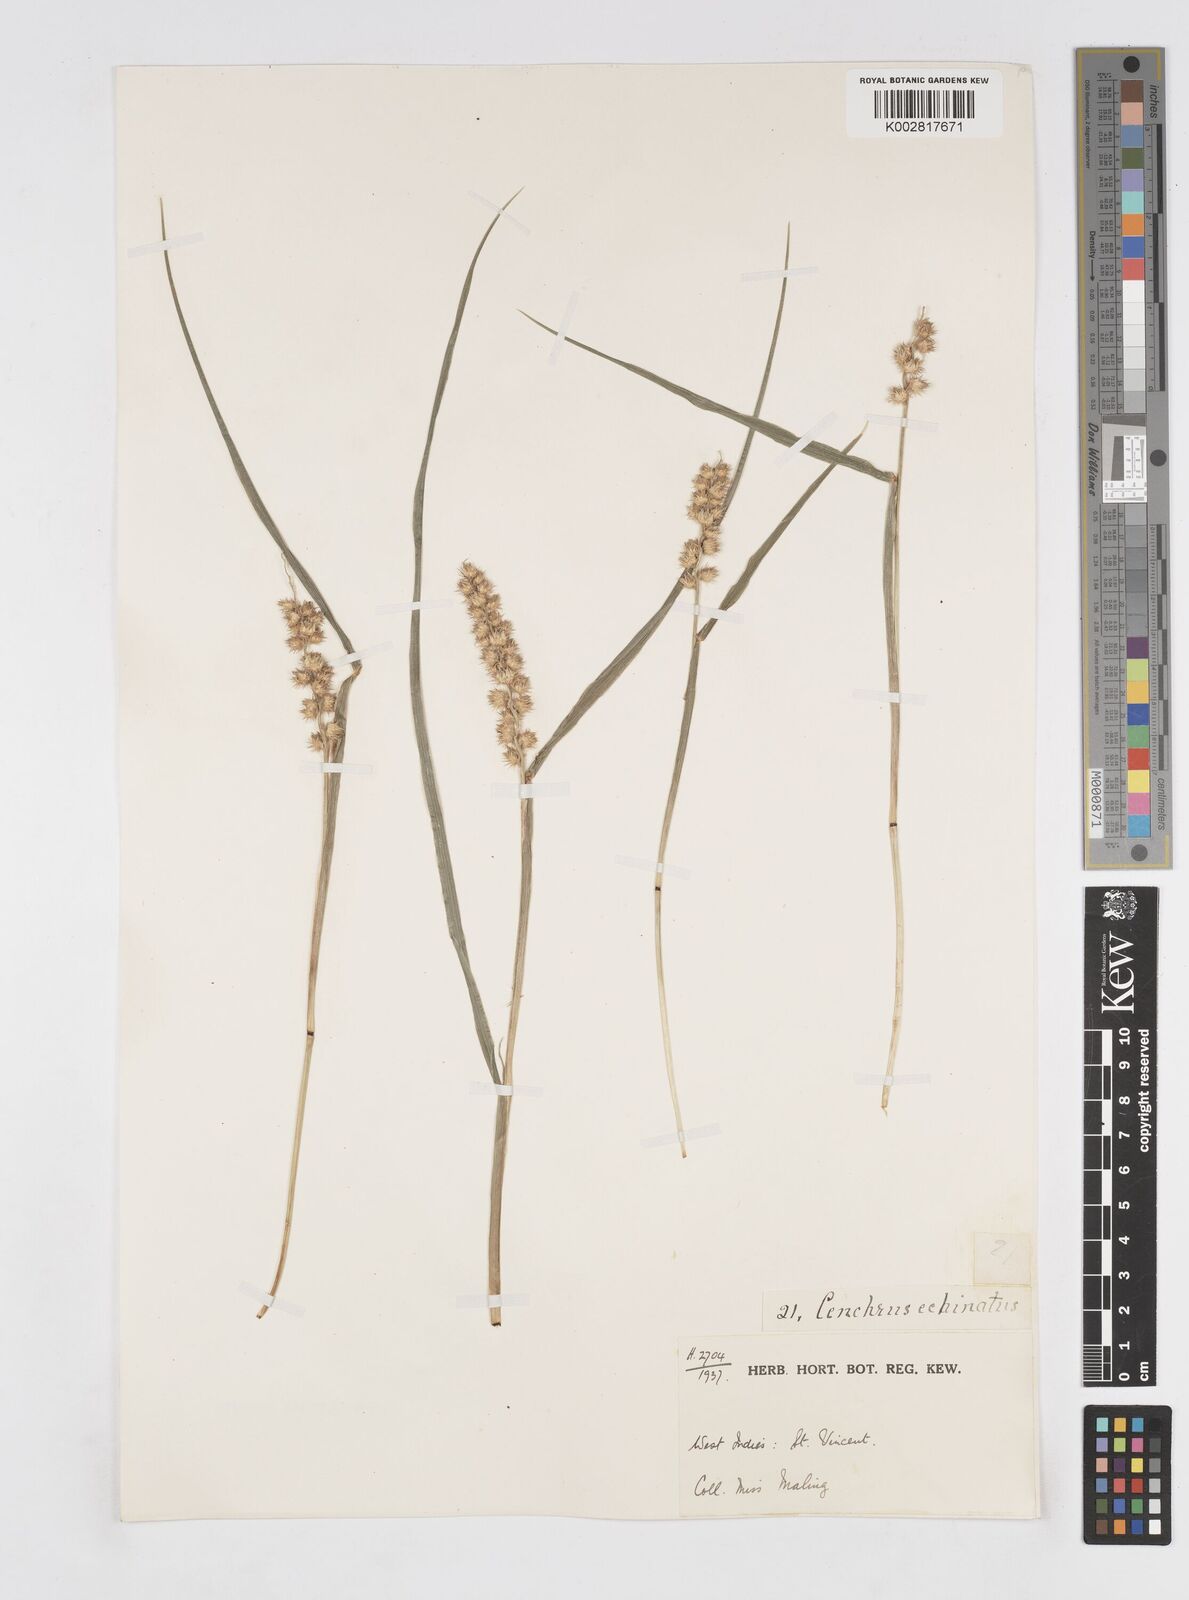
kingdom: Plantae
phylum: Tracheophyta
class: Liliopsida
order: Poales
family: Poaceae
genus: Cenchrus
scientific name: Cenchrus
